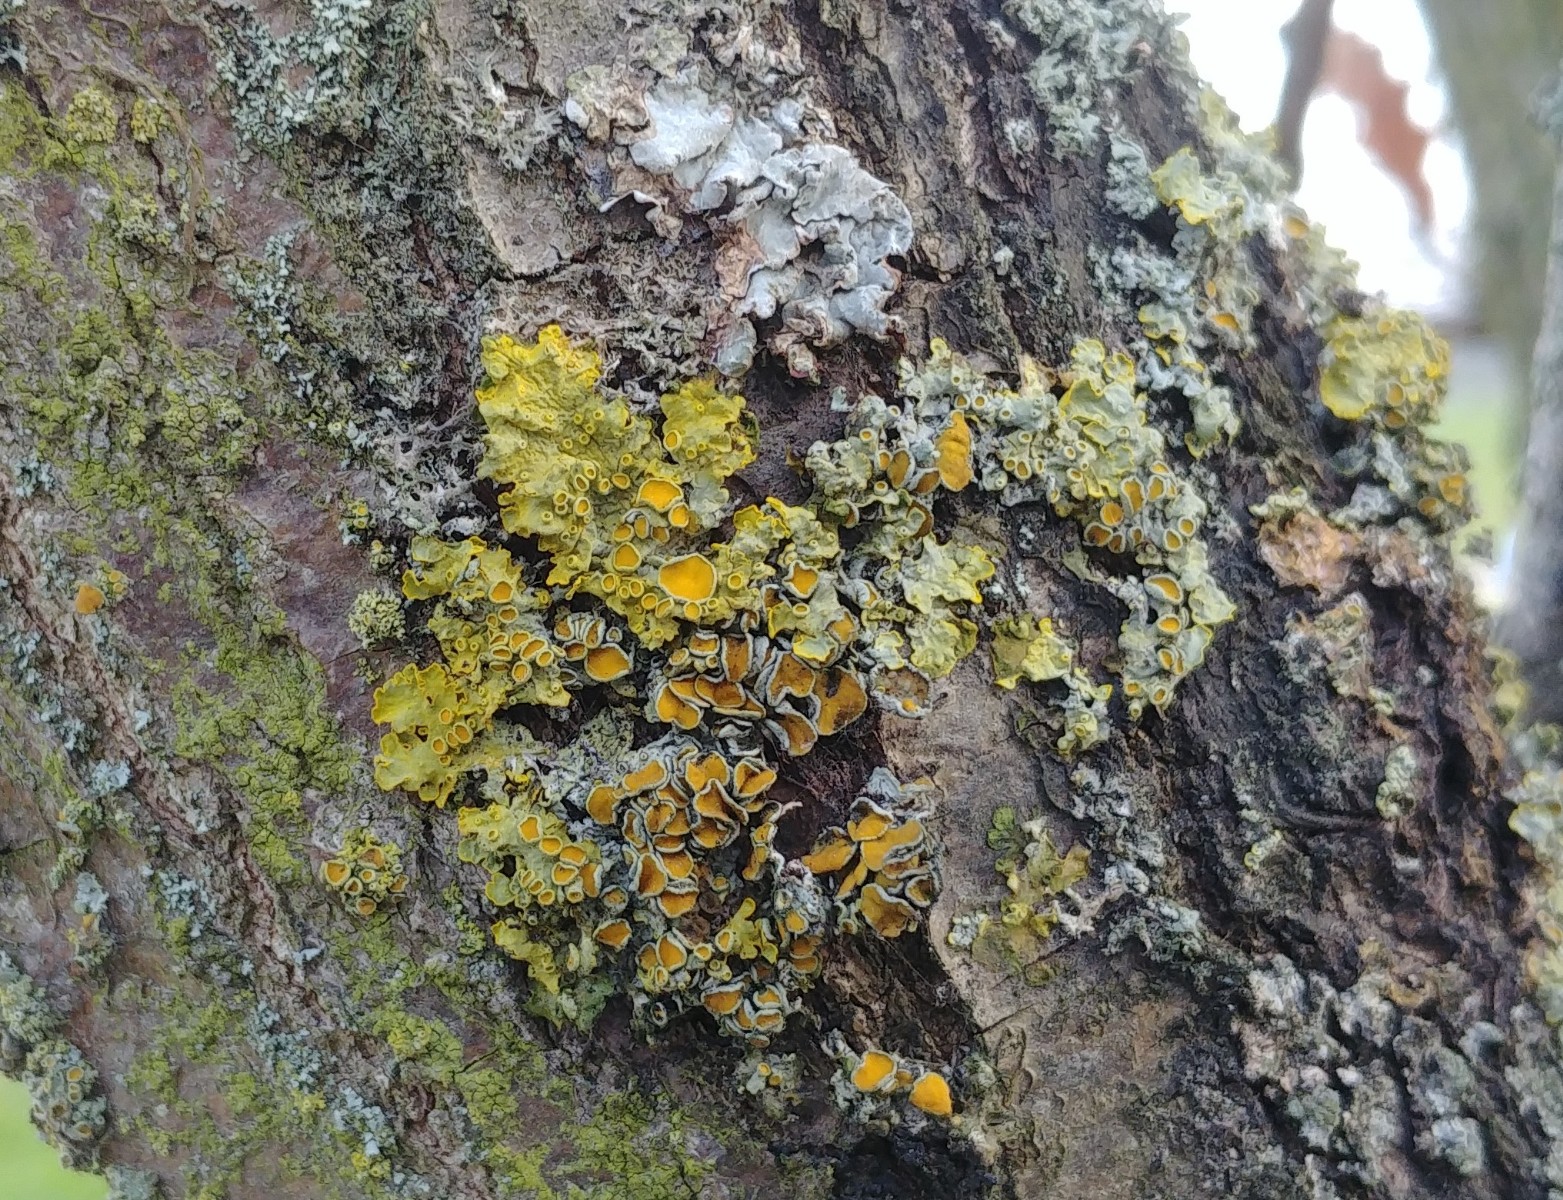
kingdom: Fungi
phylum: Ascomycota
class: Lecanoromycetes
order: Teloschistales
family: Teloschistaceae
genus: Xanthoria
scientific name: Xanthoria parietina
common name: almindelig væggelav
